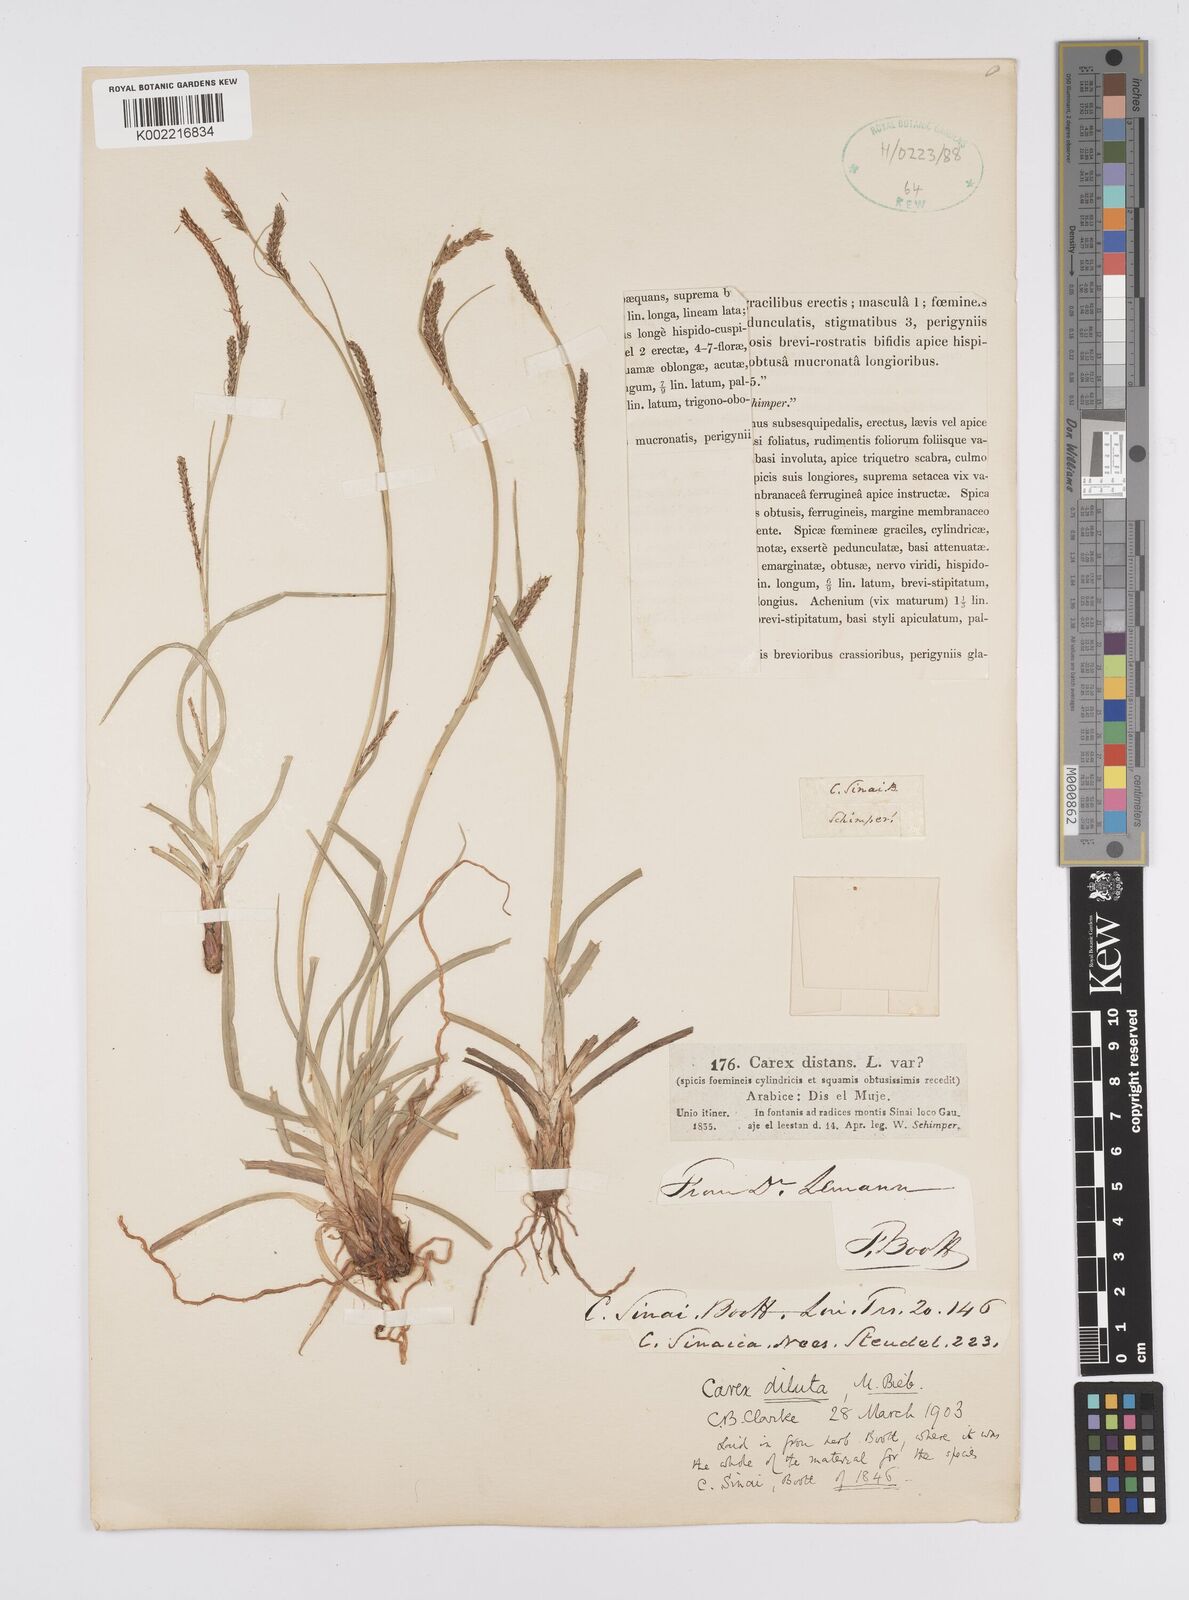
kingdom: Plantae
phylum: Tracheophyta
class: Liliopsida
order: Poales
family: Cyperaceae
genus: Carex
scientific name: Carex diluta
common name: Sedge
